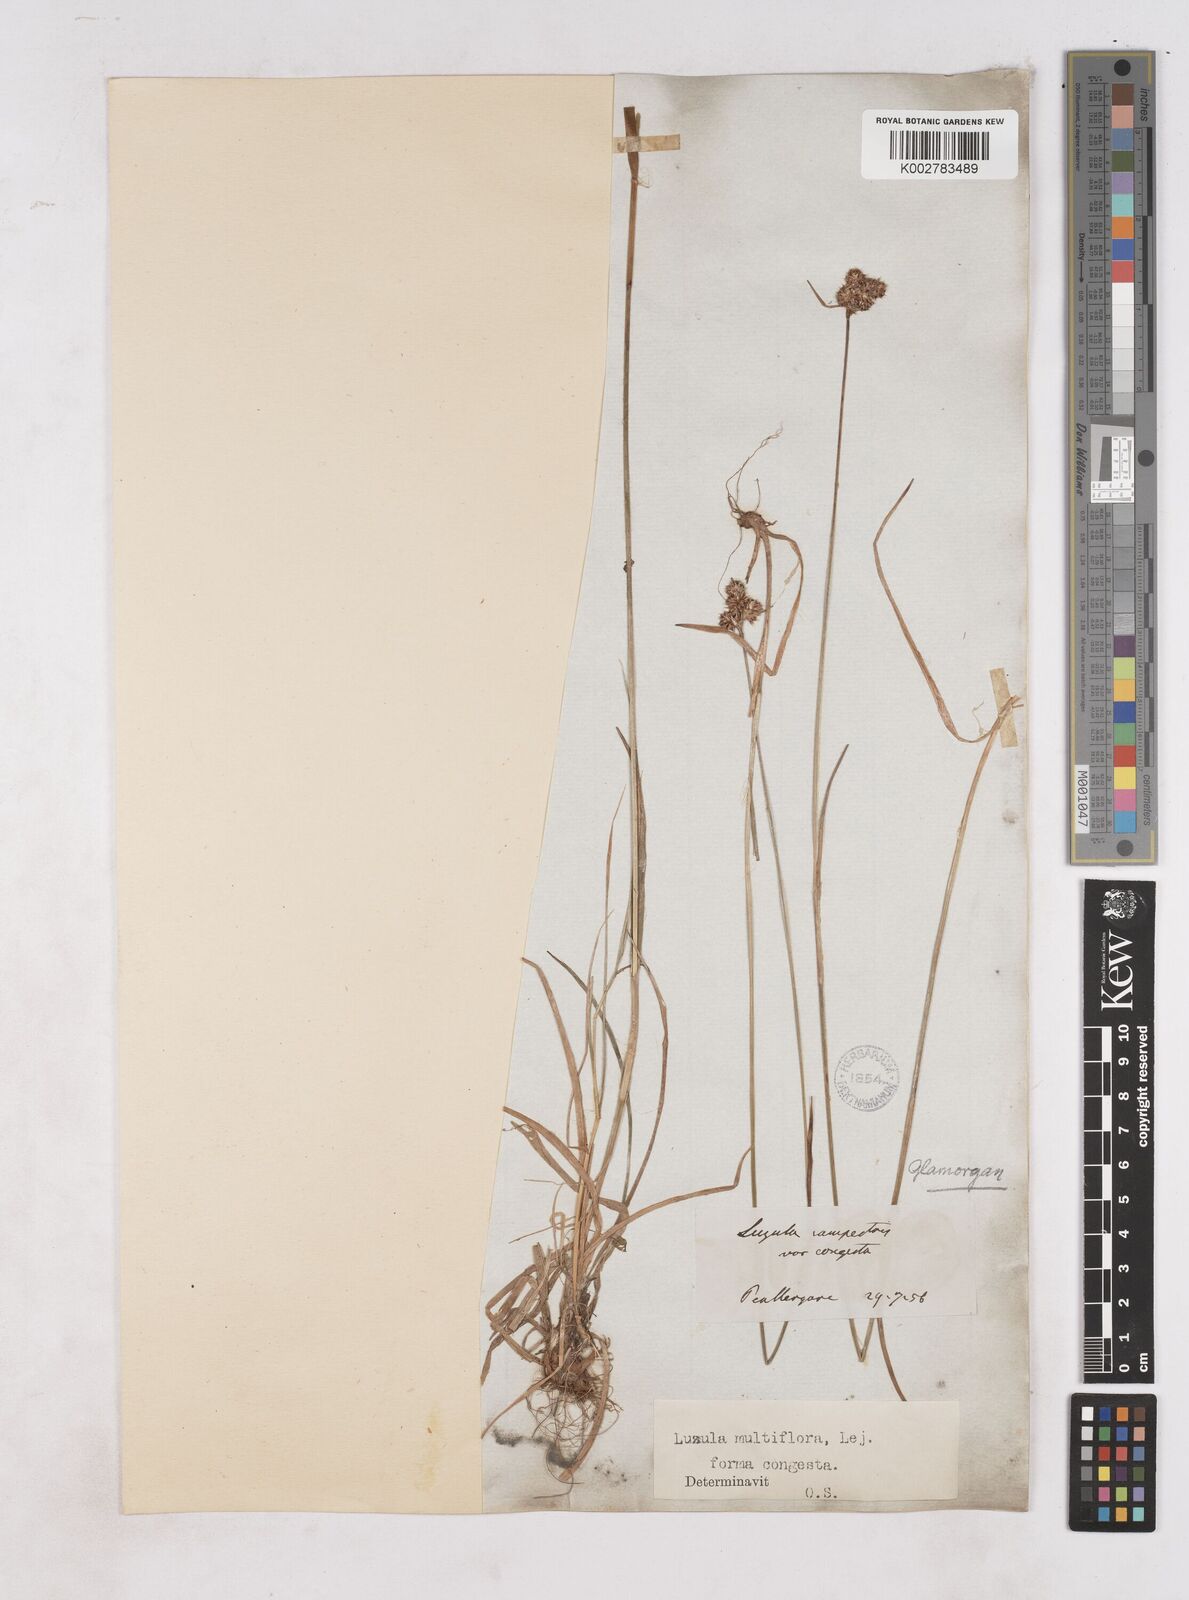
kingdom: Plantae
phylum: Tracheophyta
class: Liliopsida
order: Poales
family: Juncaceae
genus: Luzula
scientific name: Luzula campestris
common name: Field wood-rush
